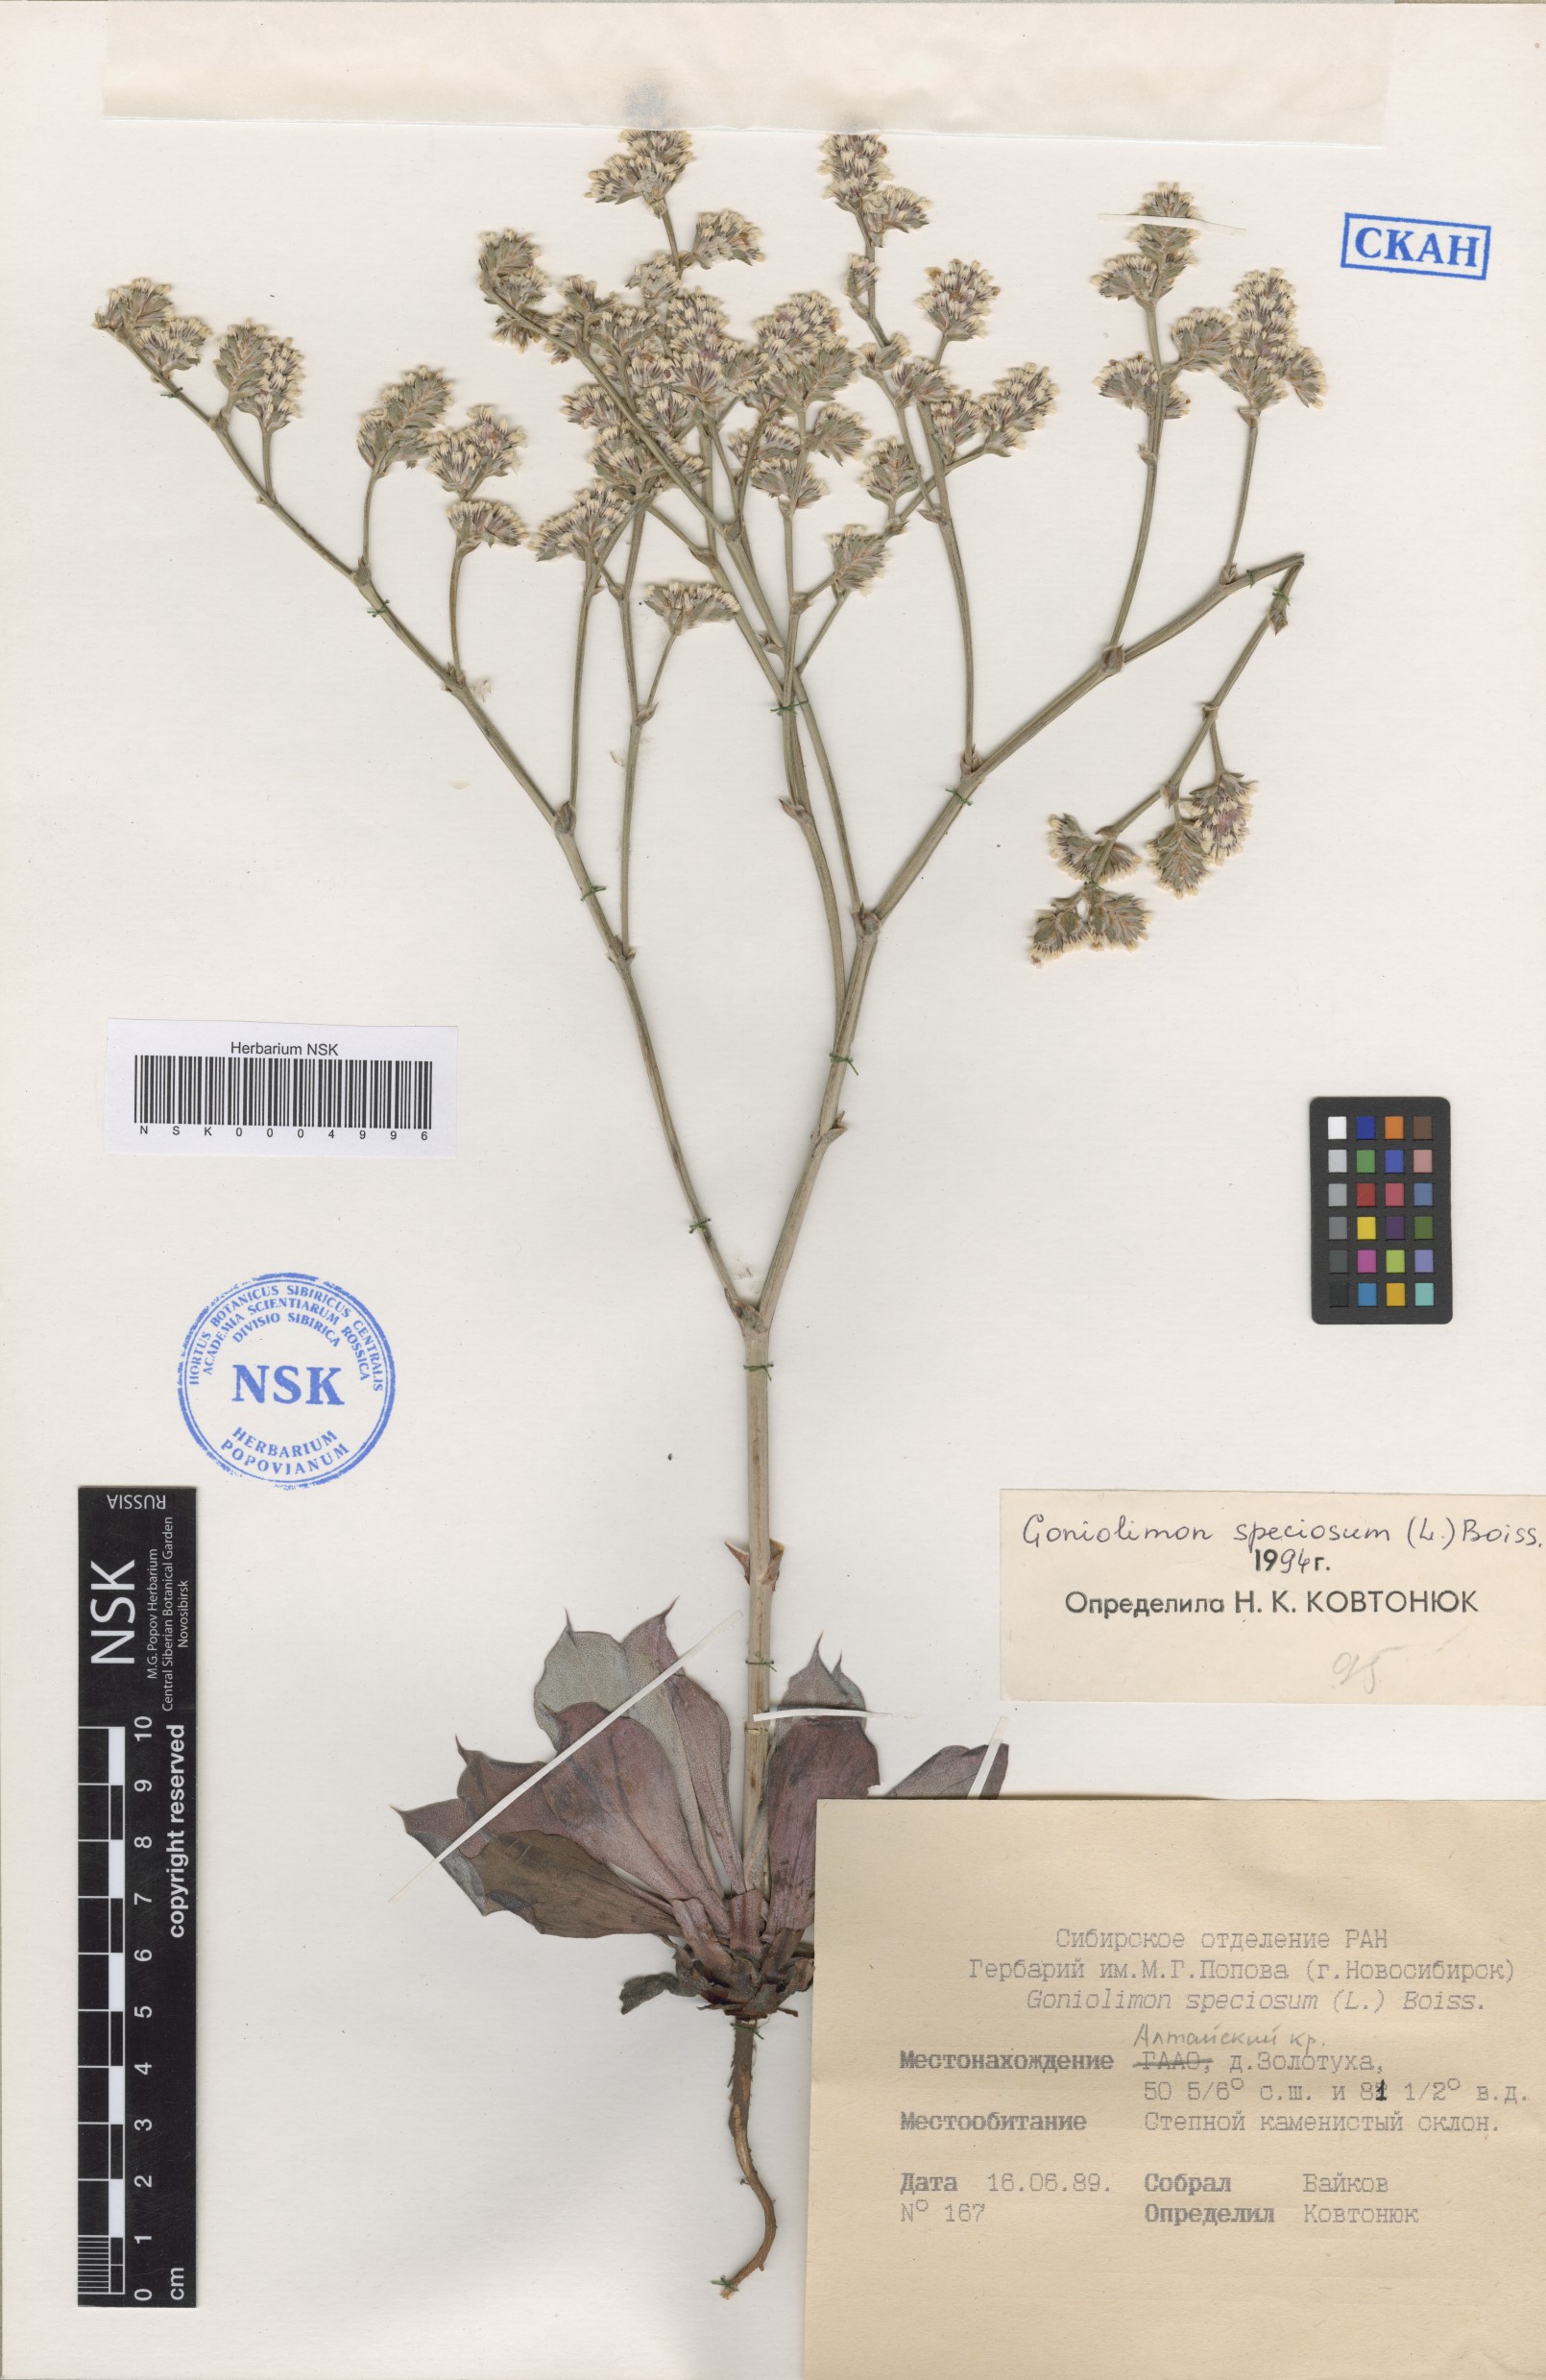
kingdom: Plantae
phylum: Tracheophyta
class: Magnoliopsida
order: Caryophyllales
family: Plumbaginaceae
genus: Goniolimon
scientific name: Goniolimon speciosum
